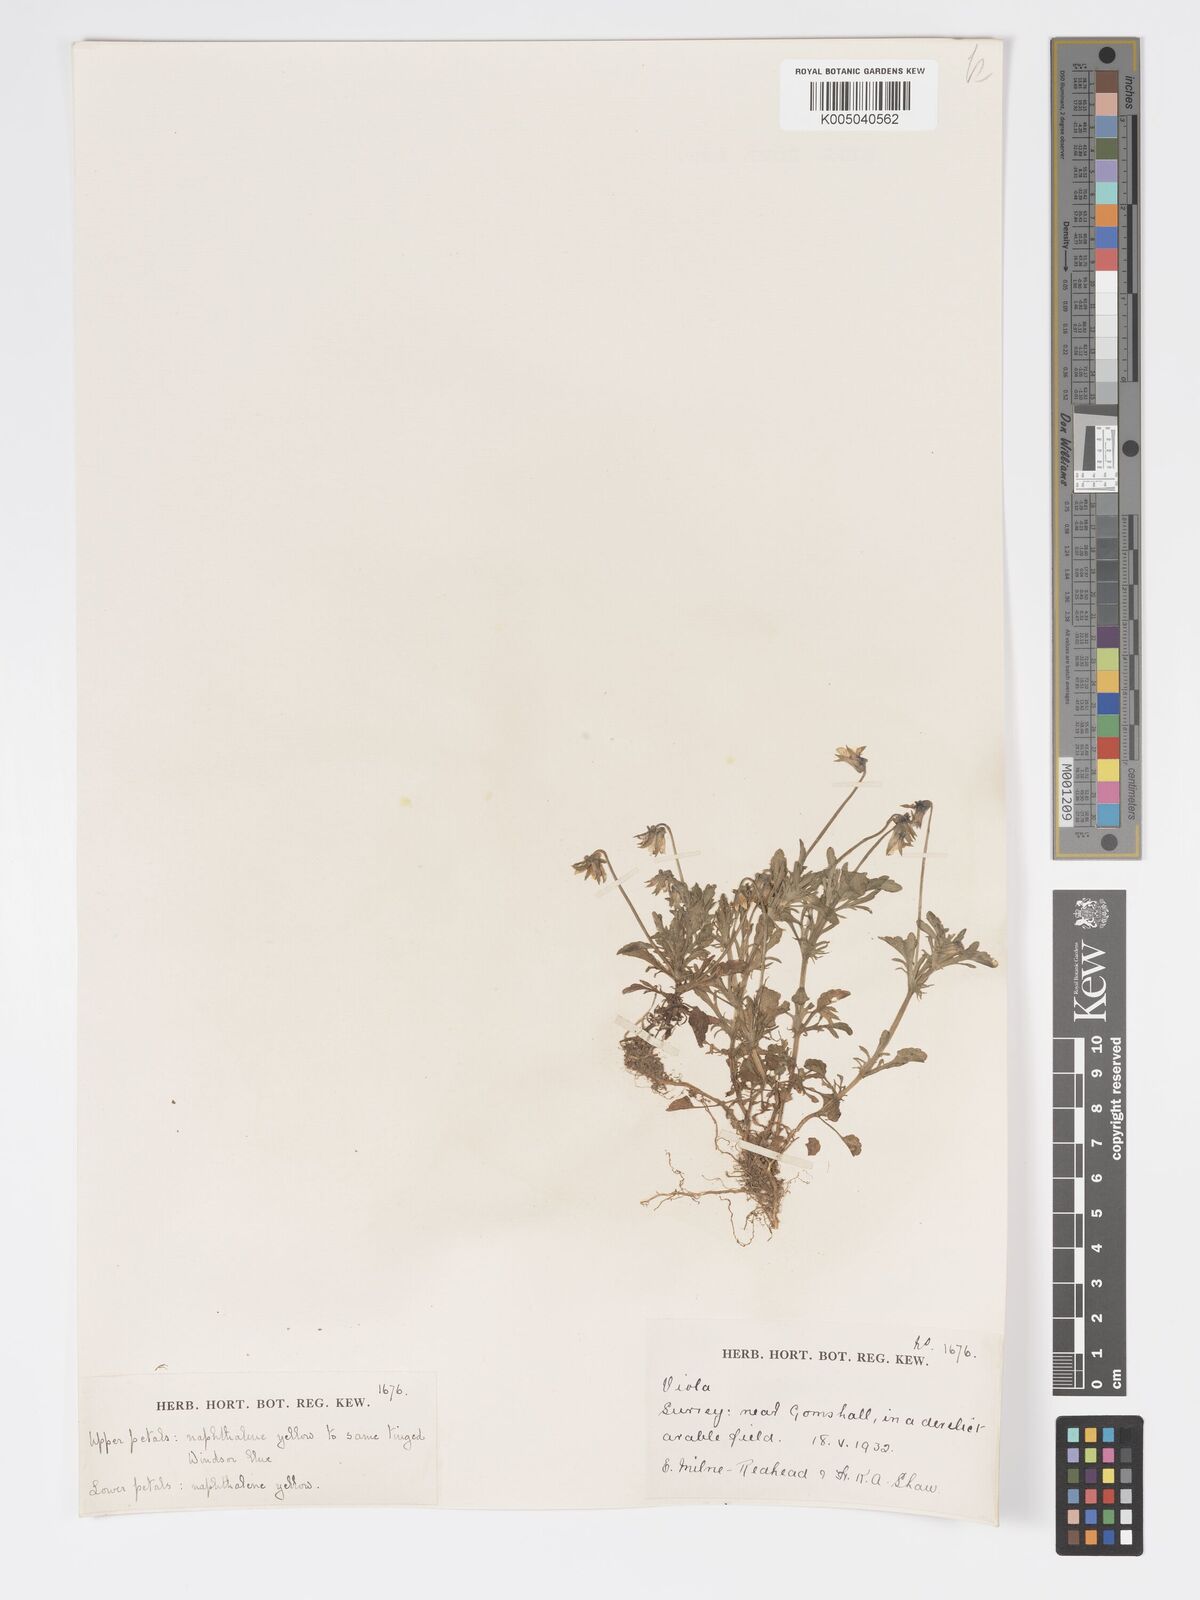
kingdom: Plantae
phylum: Tracheophyta
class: Magnoliopsida
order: Malpighiales
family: Violaceae
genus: Viola
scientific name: Viola
